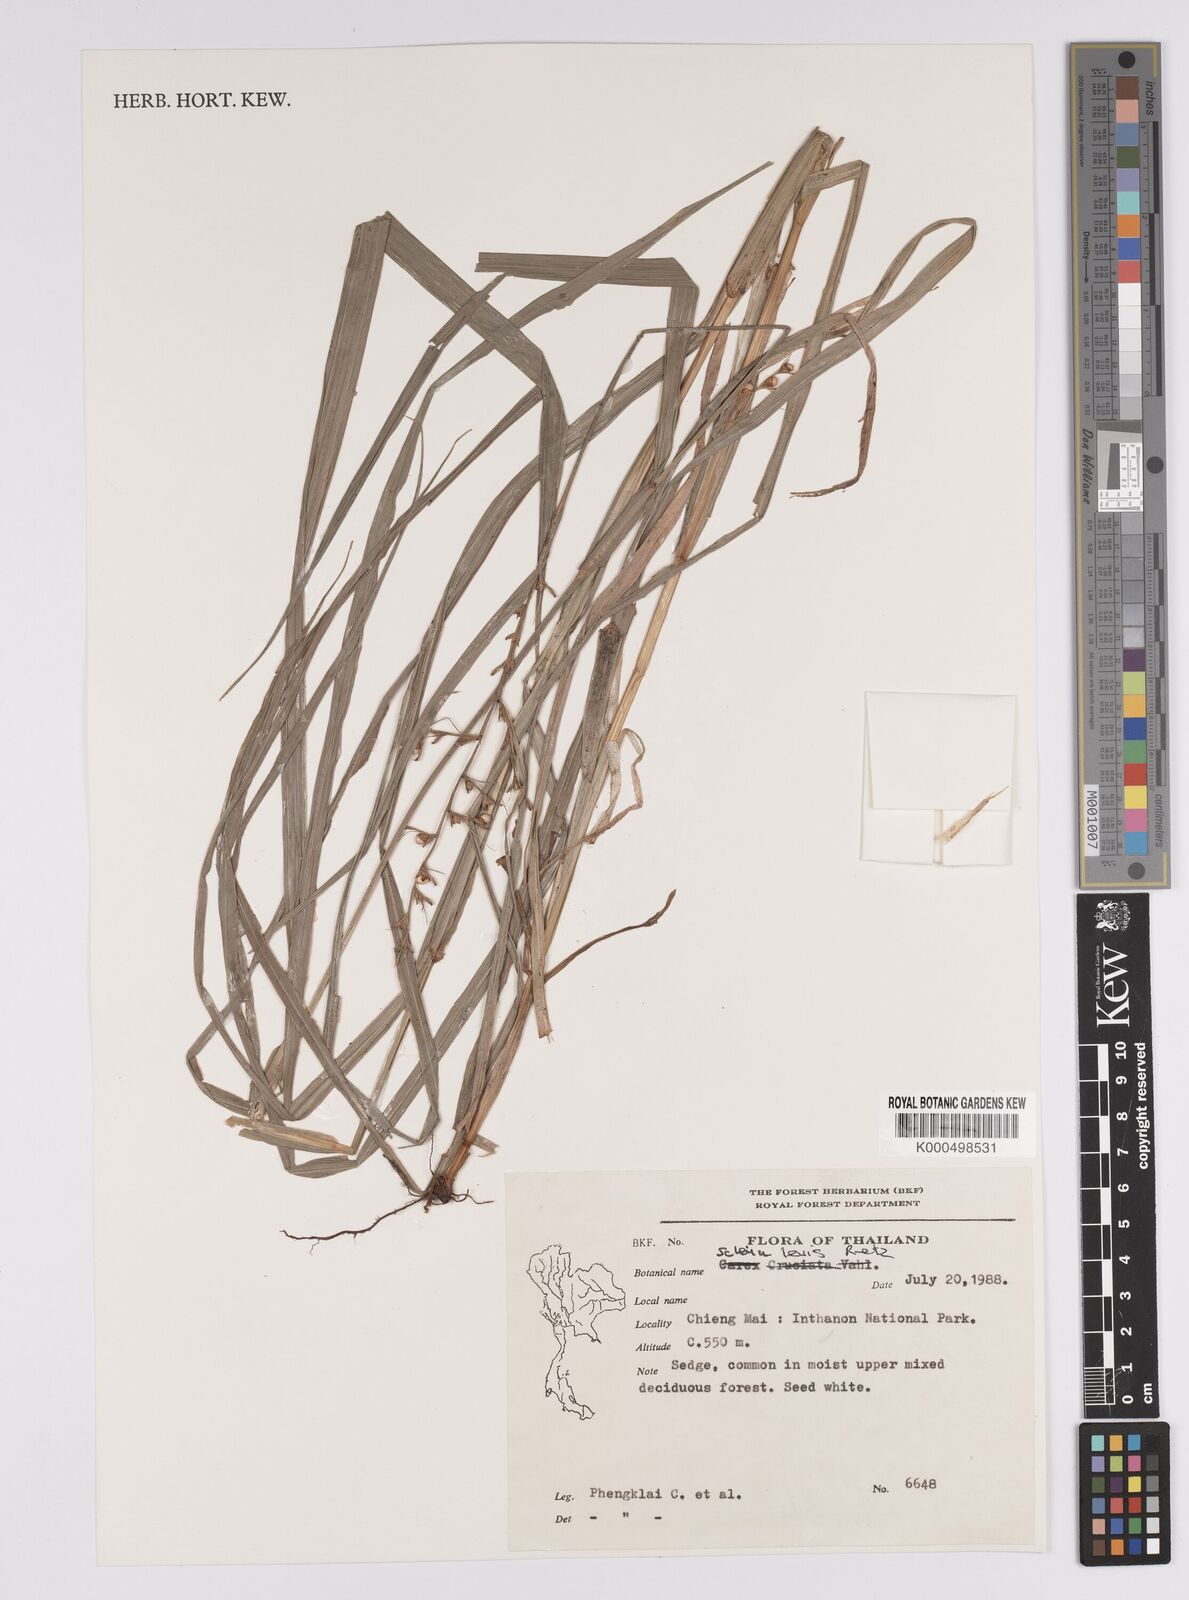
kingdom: Plantae
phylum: Tracheophyta
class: Liliopsida
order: Poales
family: Cyperaceae
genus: Scleria
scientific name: Scleria levis
